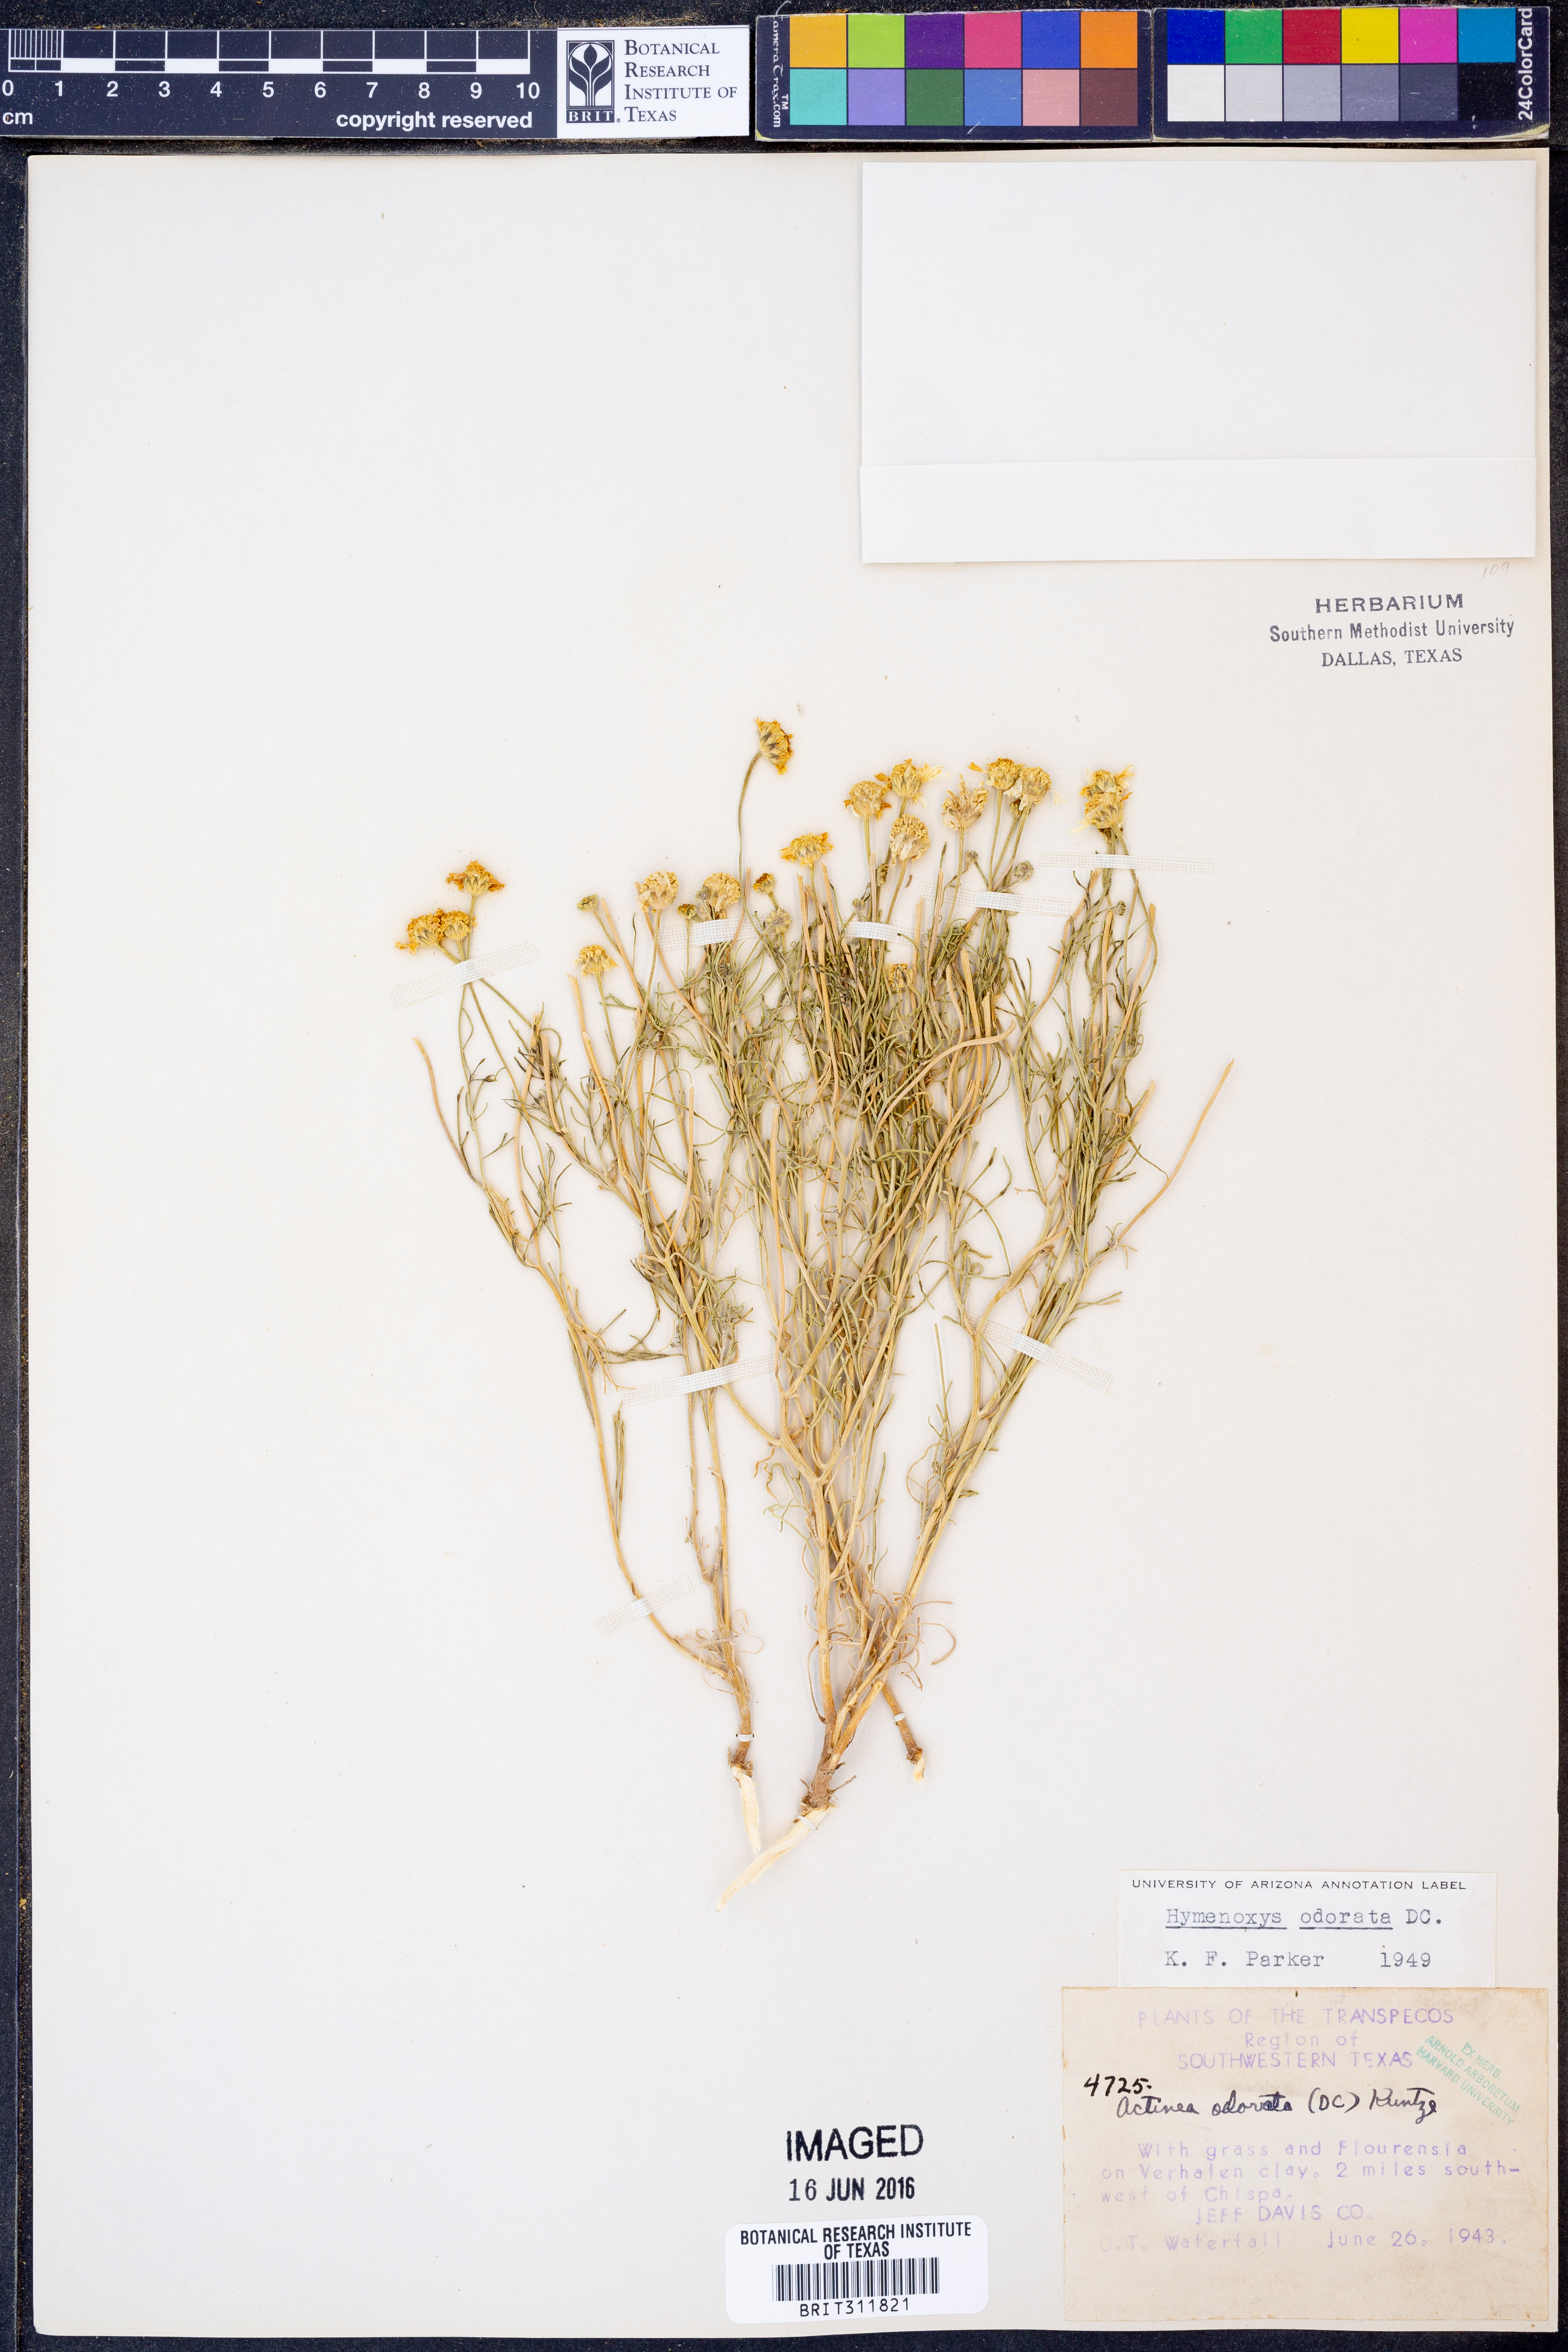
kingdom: Plantae
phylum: Tracheophyta
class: Magnoliopsida
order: Asterales
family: Asteraceae
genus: Hymenoxys
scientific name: Hymenoxys odorata
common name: Bitter rubberweed
